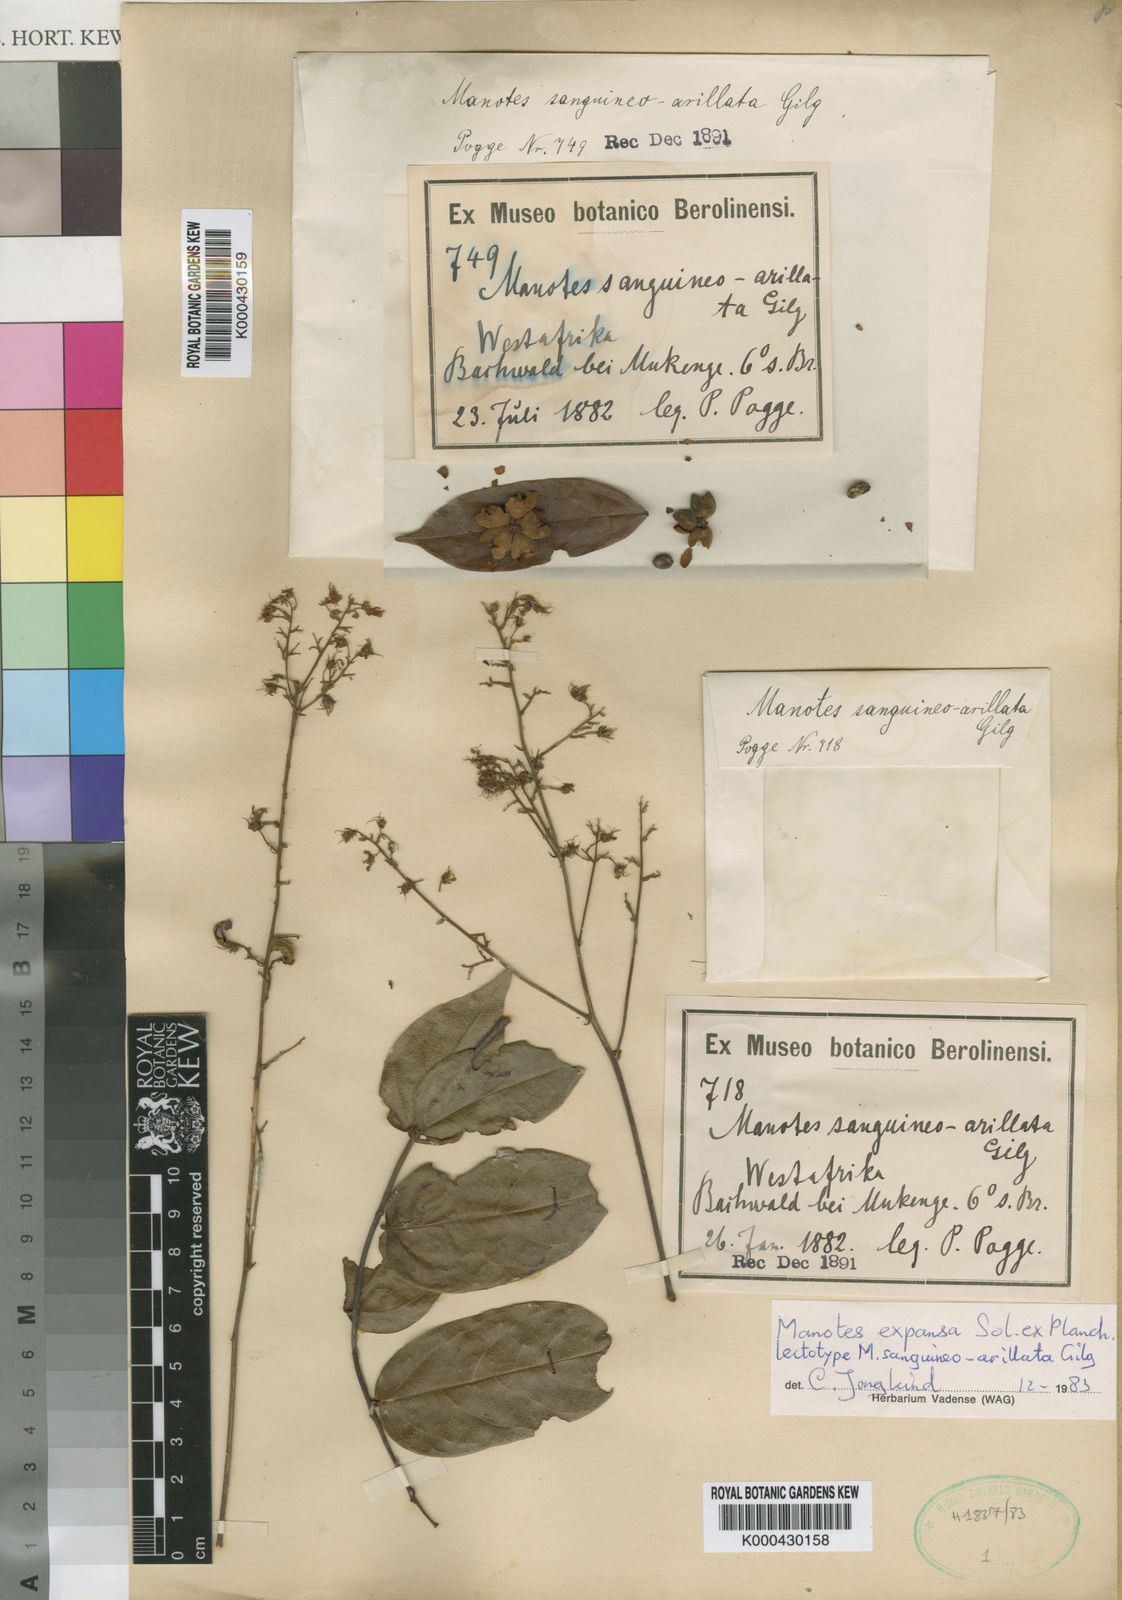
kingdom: Plantae
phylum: Tracheophyta
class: Magnoliopsida
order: Oxalidales
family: Connaraceae
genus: Manotes
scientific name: Manotes expansa
